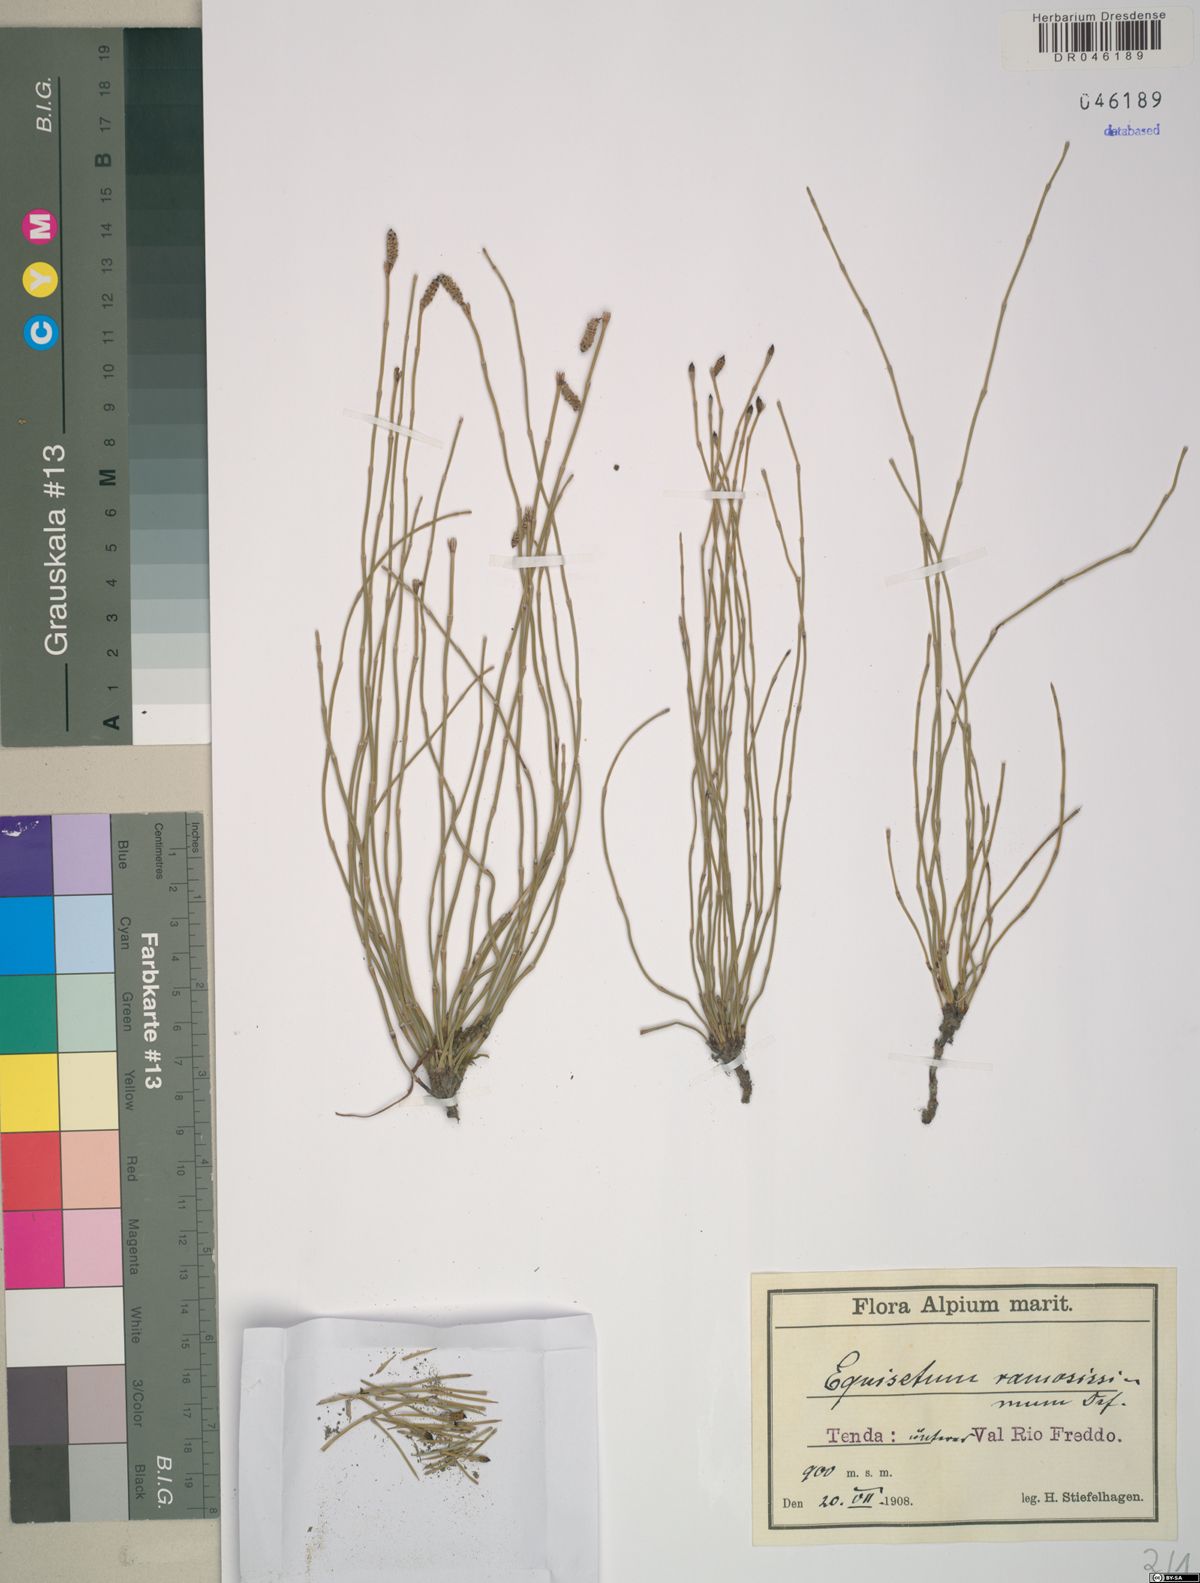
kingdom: Plantae
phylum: Tracheophyta
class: Polypodiopsida
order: Equisetales
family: Equisetaceae
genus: Equisetum
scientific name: Equisetum ramosissimum
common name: Branched horsetail
